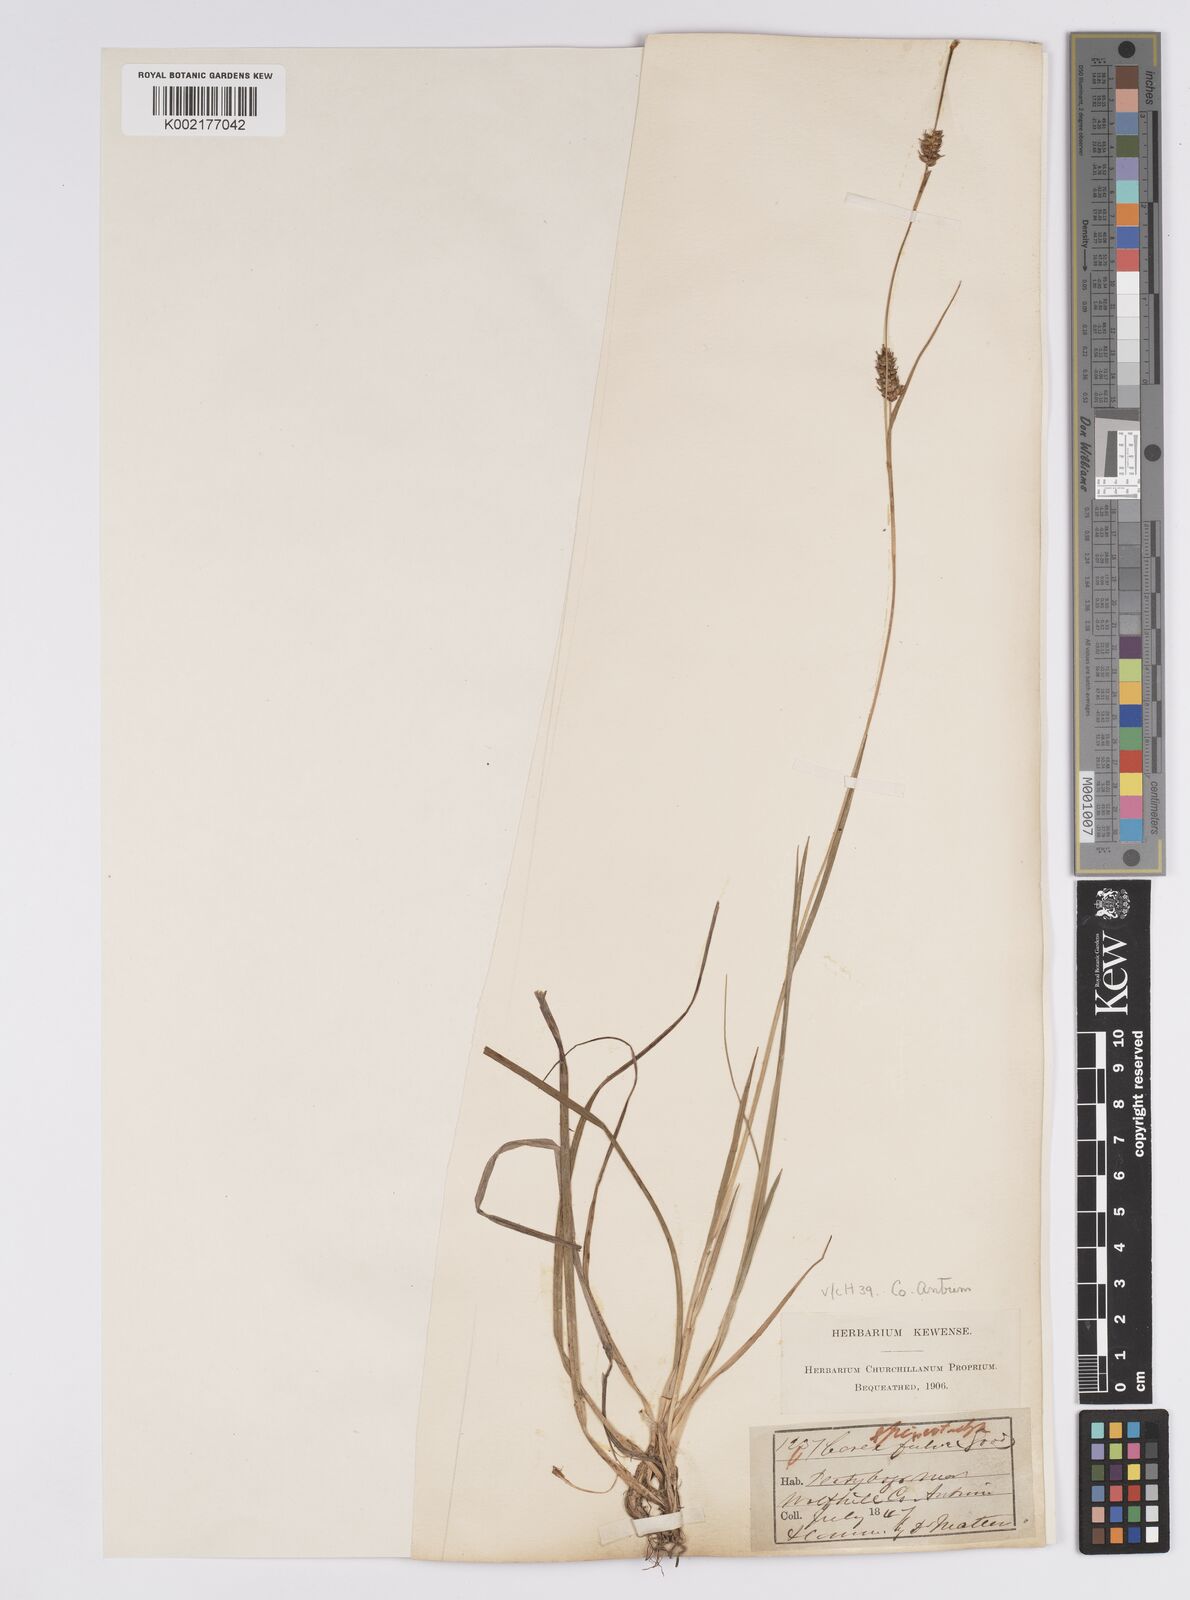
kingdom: Plantae
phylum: Tracheophyta
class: Liliopsida
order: Poales
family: Cyperaceae
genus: Carex
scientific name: Carex hostiana
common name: Tawny sedge
